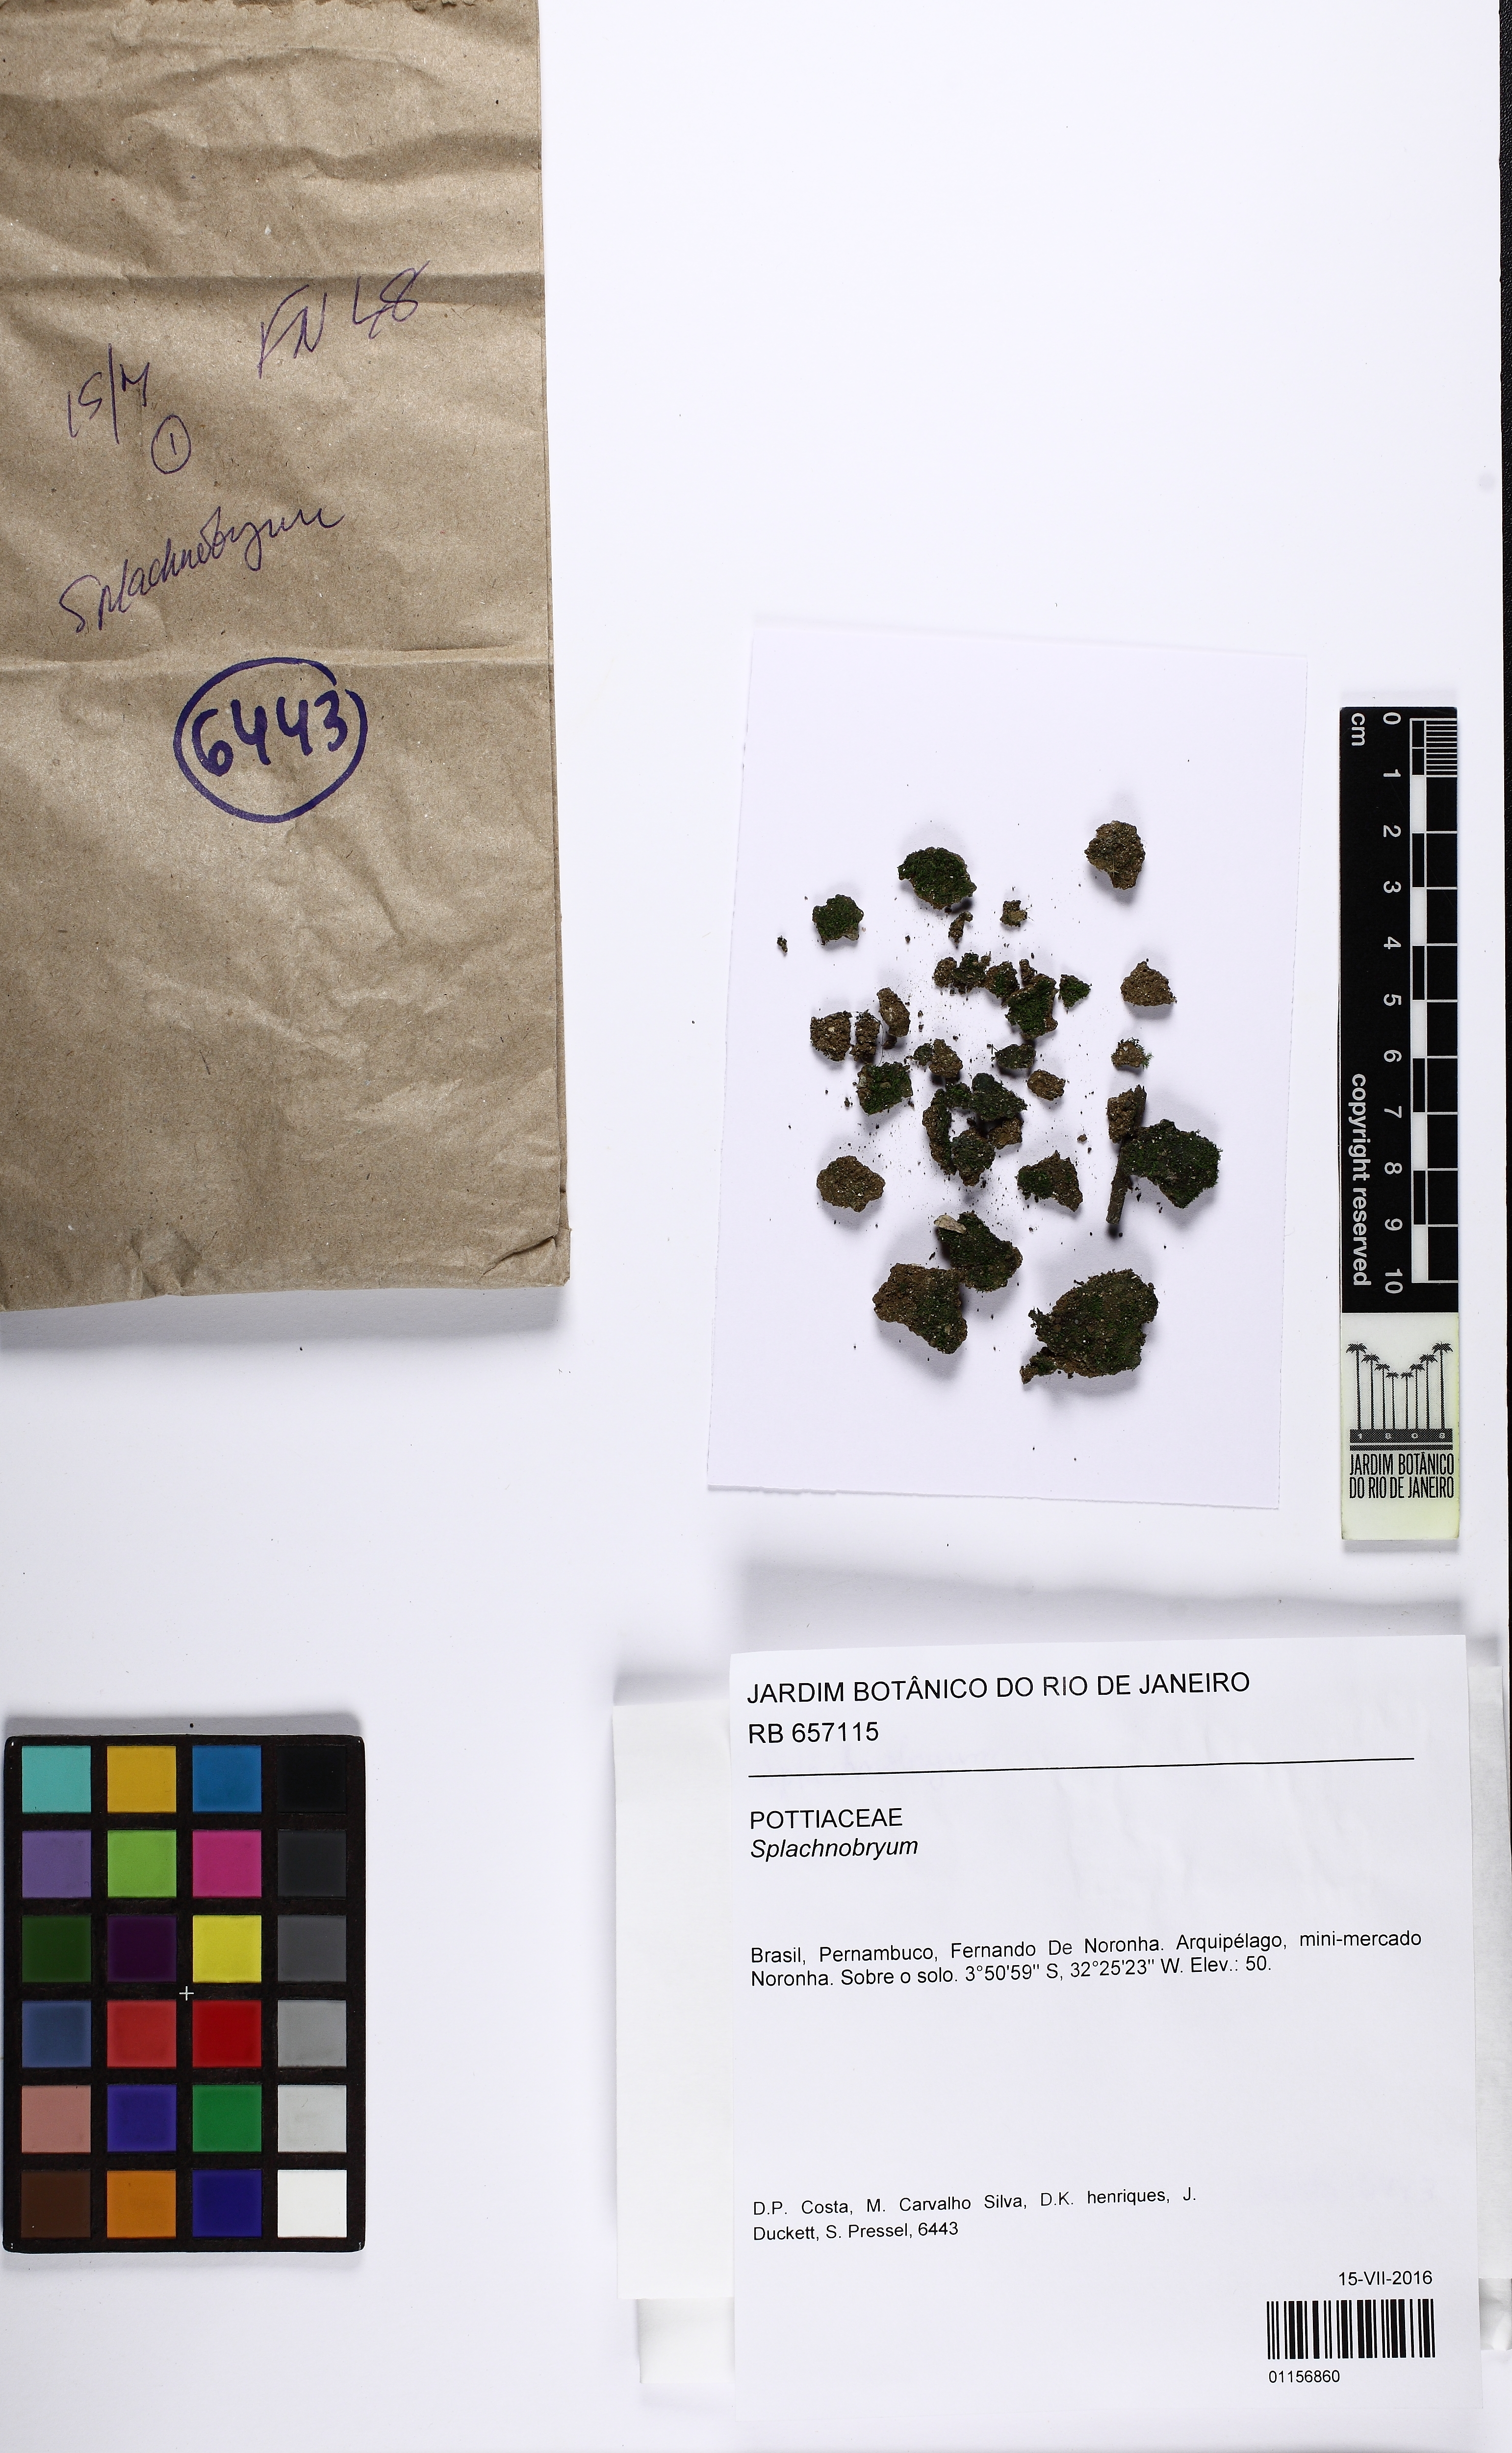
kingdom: Plantae
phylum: Bryophyta
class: Bryopsida
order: Pottiales
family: Splachnobryaceae
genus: Splachnobryum
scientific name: Splachnobryum
